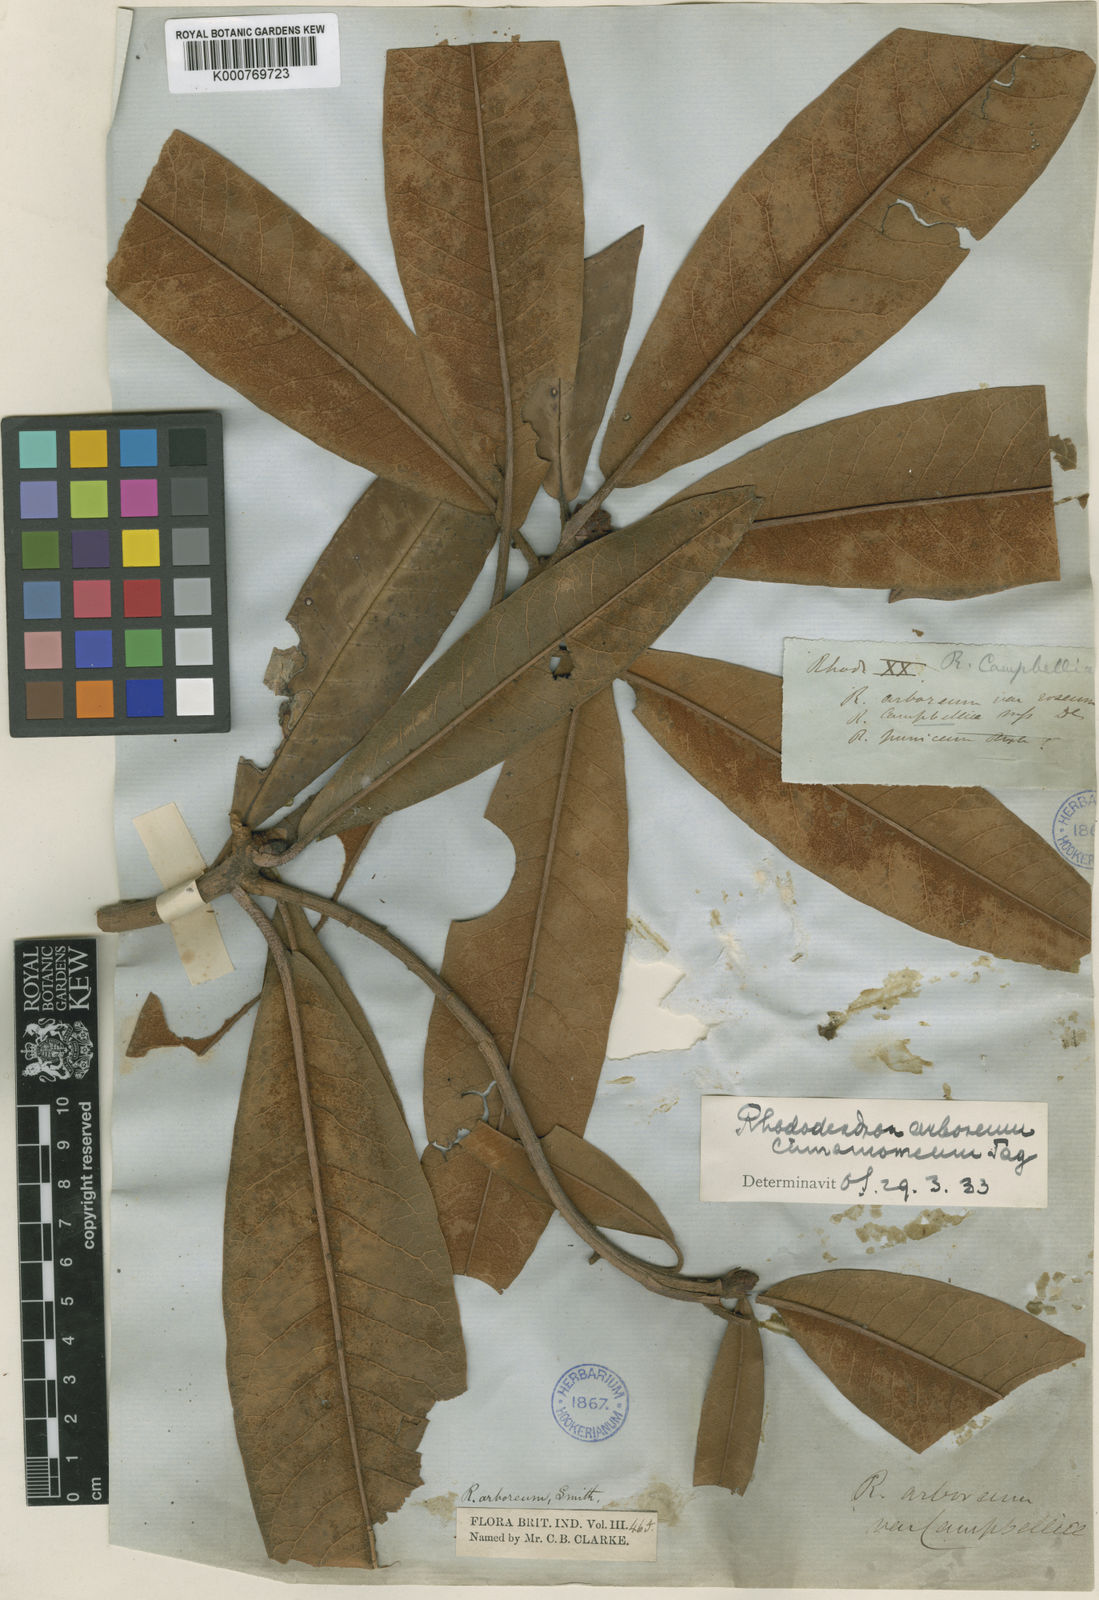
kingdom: Plantae
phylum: Tracheophyta
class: Magnoliopsida
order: Ericales
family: Ericaceae
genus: Rhododendron
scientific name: Rhododendron arboreum
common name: Tree rhododendron
